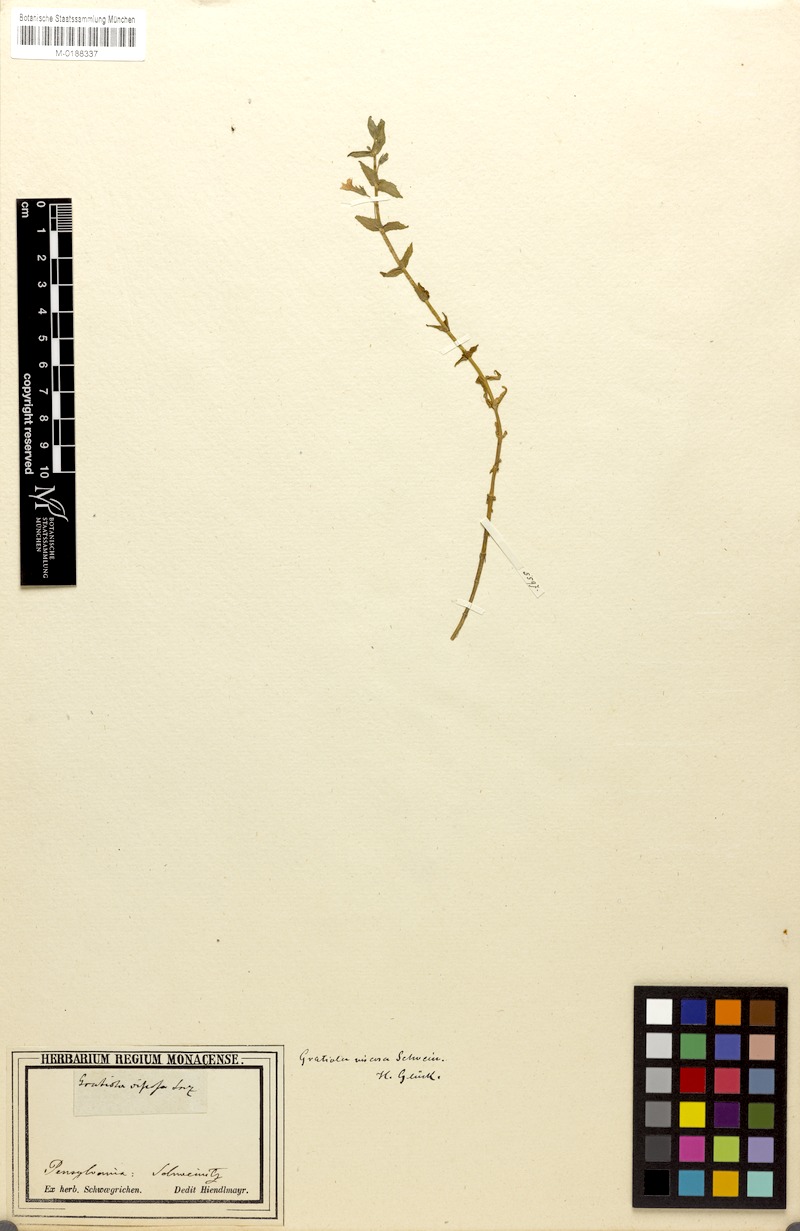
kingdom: Plantae
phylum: Tracheophyta
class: Magnoliopsida
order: Lamiales
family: Plantaginaceae
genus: Gratiola
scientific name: Gratiola viscidula
